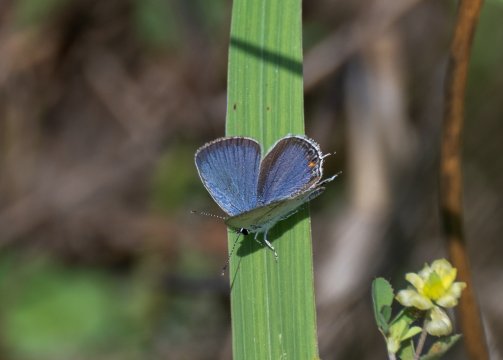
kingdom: Animalia
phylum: Arthropoda
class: Insecta
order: Lepidoptera
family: Lycaenidae
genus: Elkalyce
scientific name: Elkalyce comyntas
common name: Eastern Tailed-Blue
